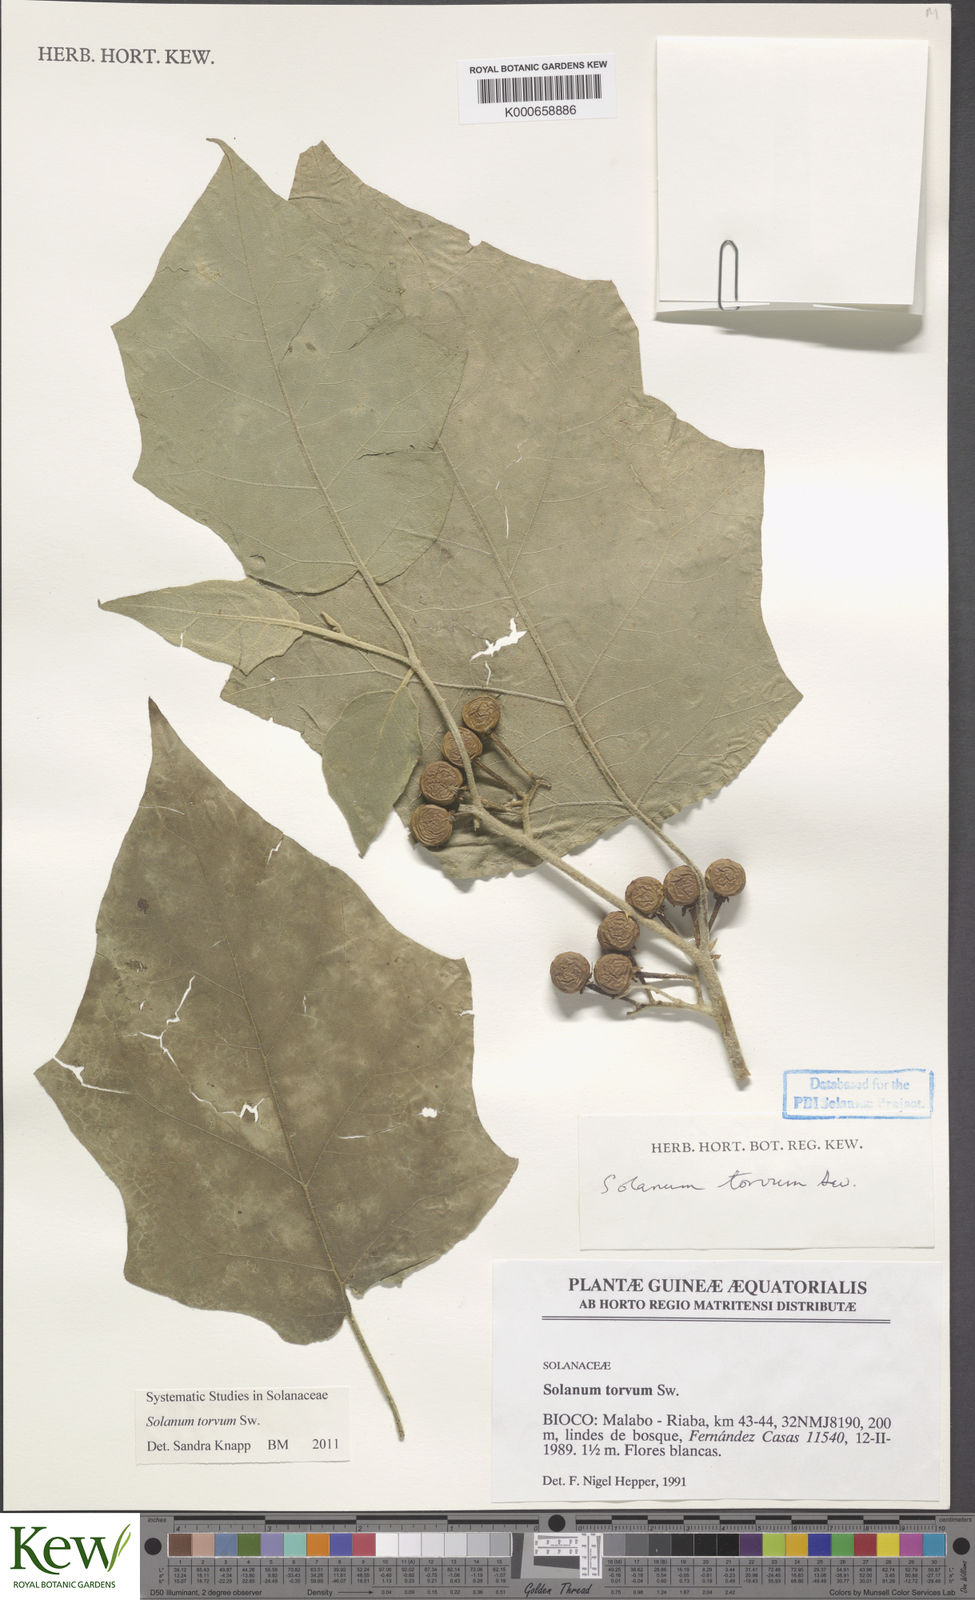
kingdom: Plantae
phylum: Tracheophyta
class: Magnoliopsida
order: Solanales
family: Solanaceae
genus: Solanum
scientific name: Solanum torvum
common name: Turkey berry
